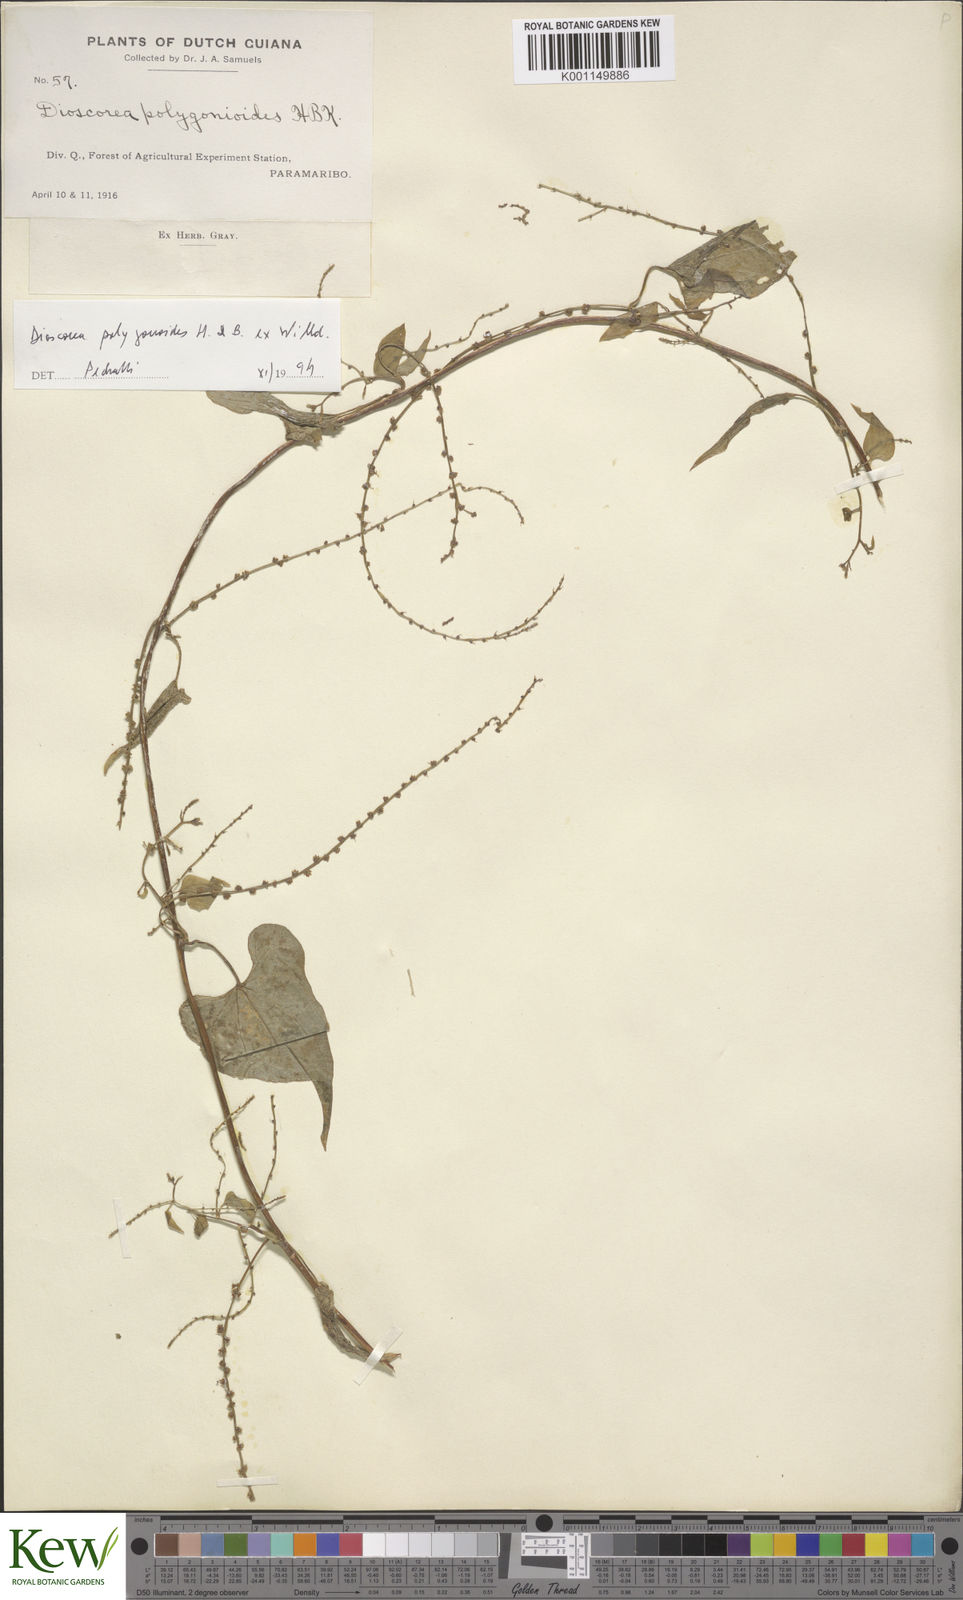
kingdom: Plantae
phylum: Tracheophyta
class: Liliopsida
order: Dioscoreales
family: Dioscoreaceae
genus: Dioscorea
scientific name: Dioscorea polygonoides
